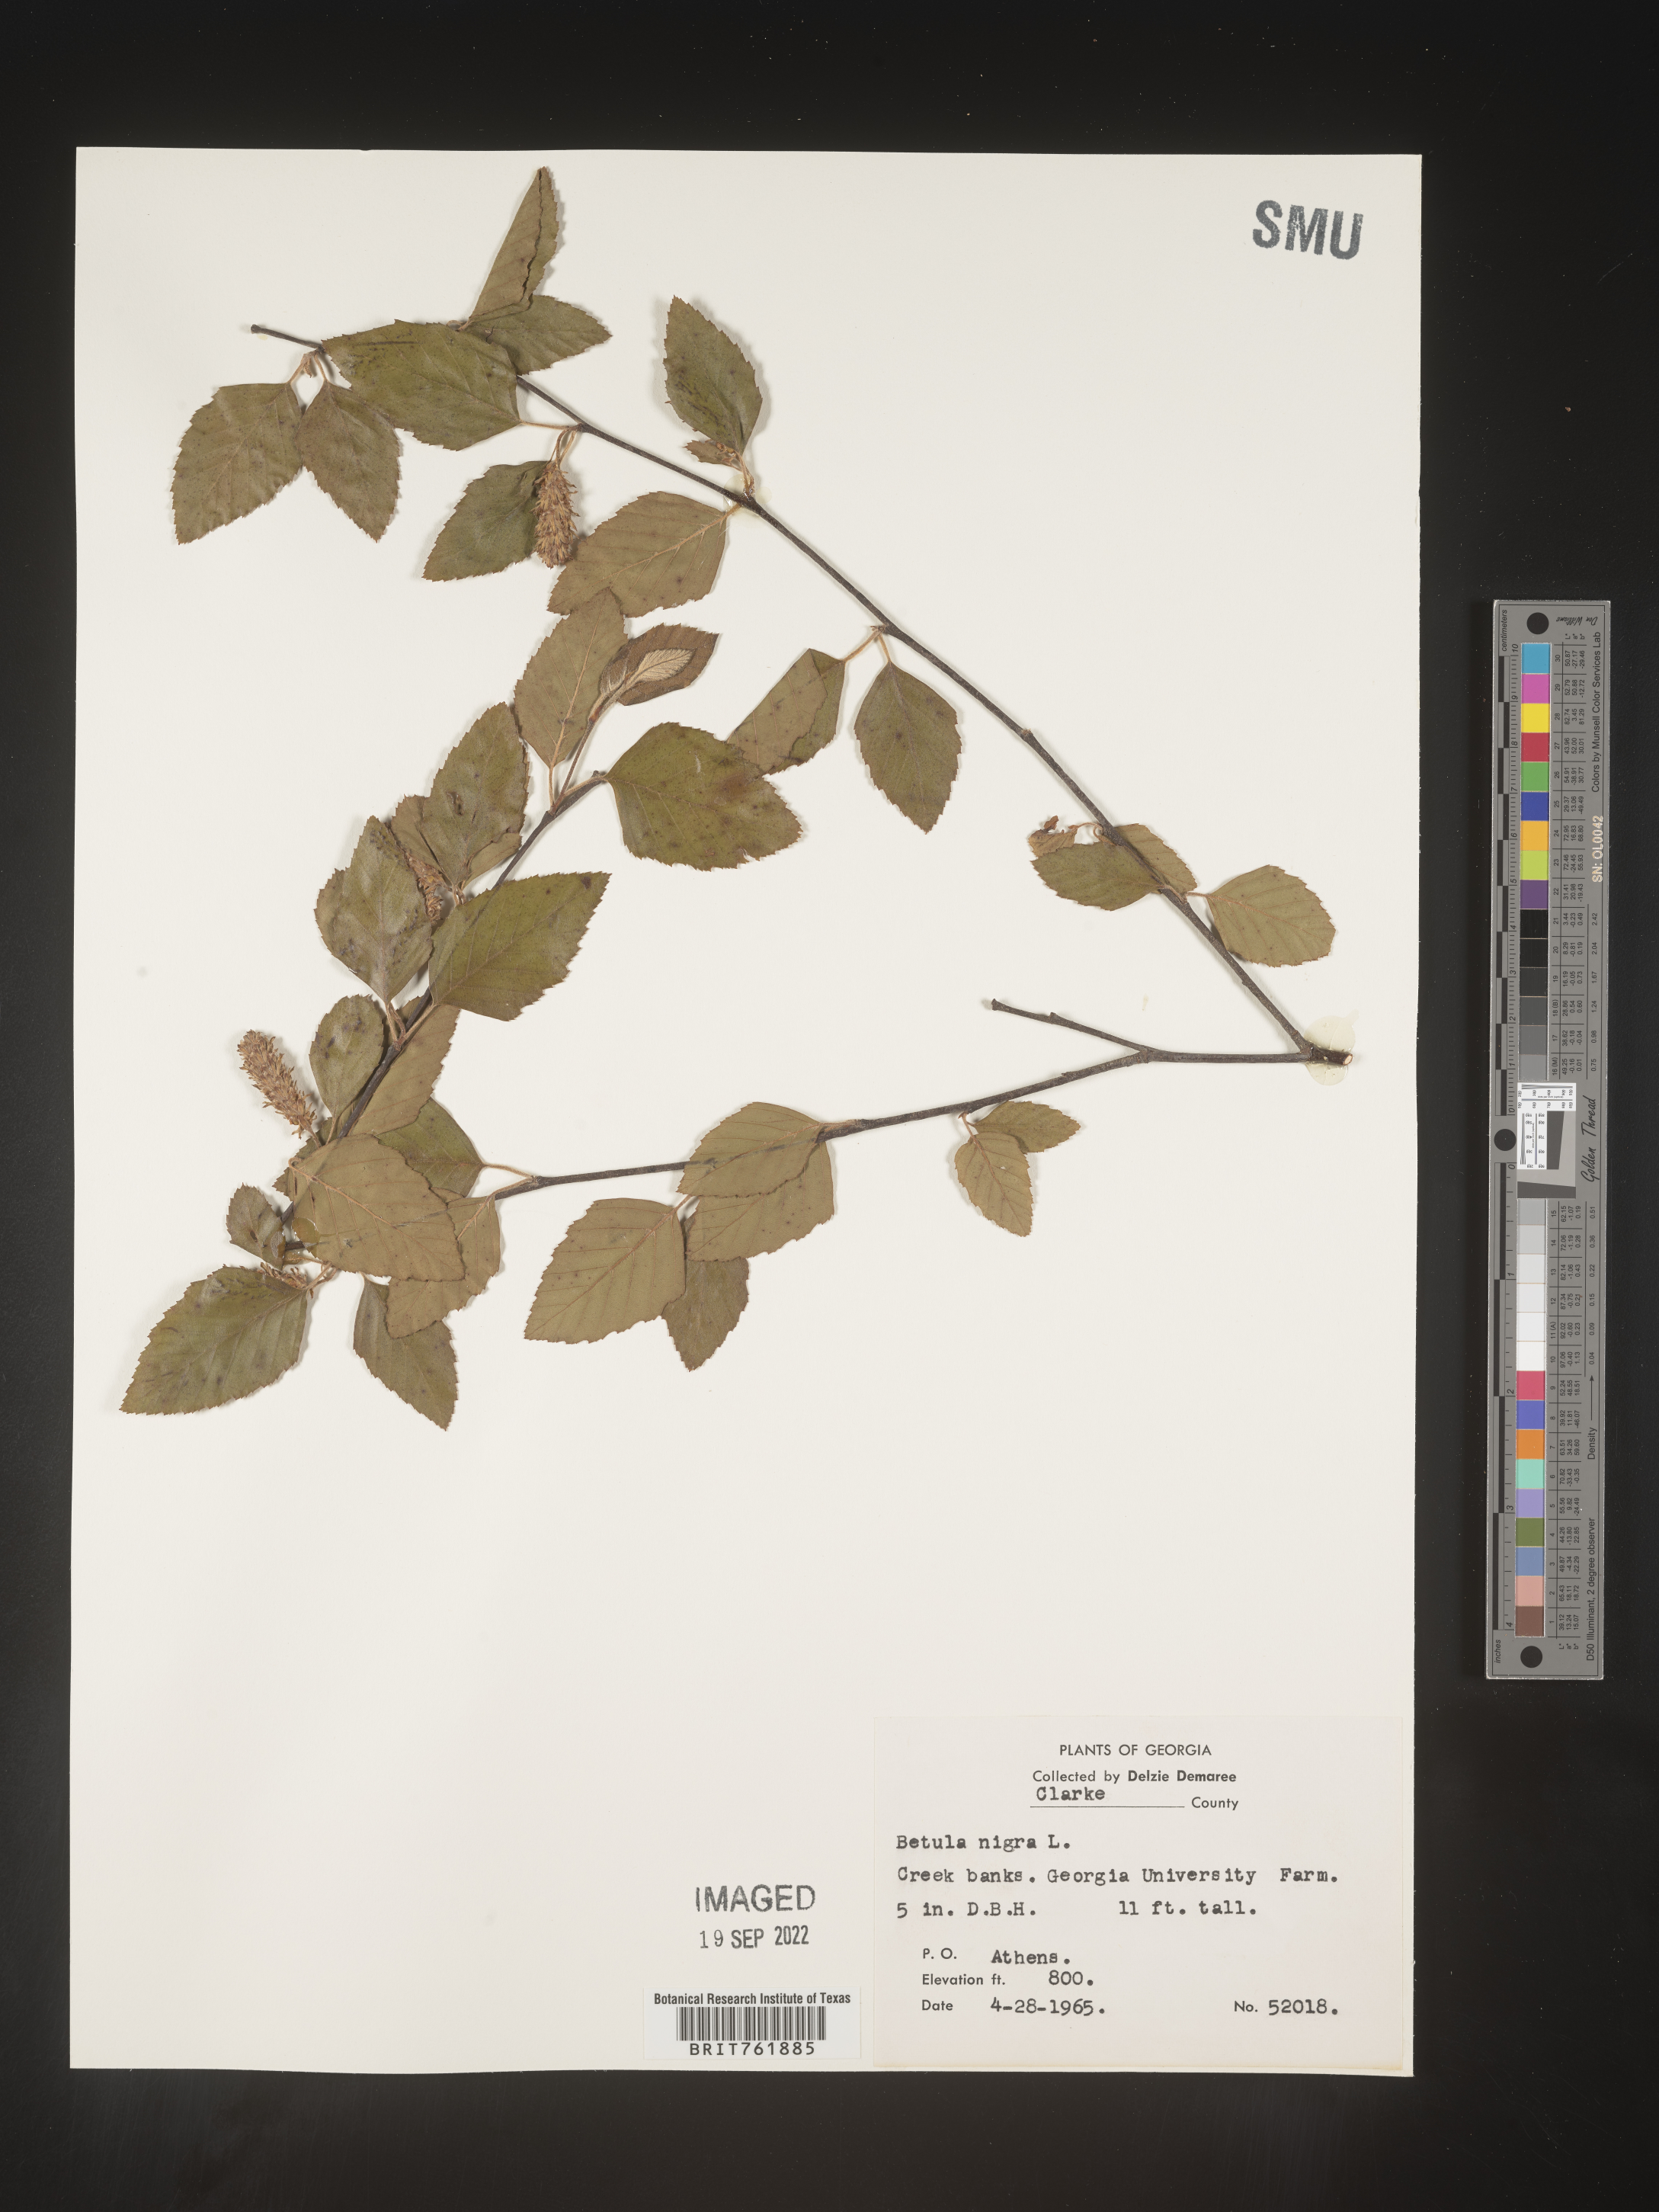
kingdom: Plantae
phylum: Tracheophyta
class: Magnoliopsida
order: Fagales
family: Betulaceae
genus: Betula
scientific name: Betula nigra
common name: Black birch
